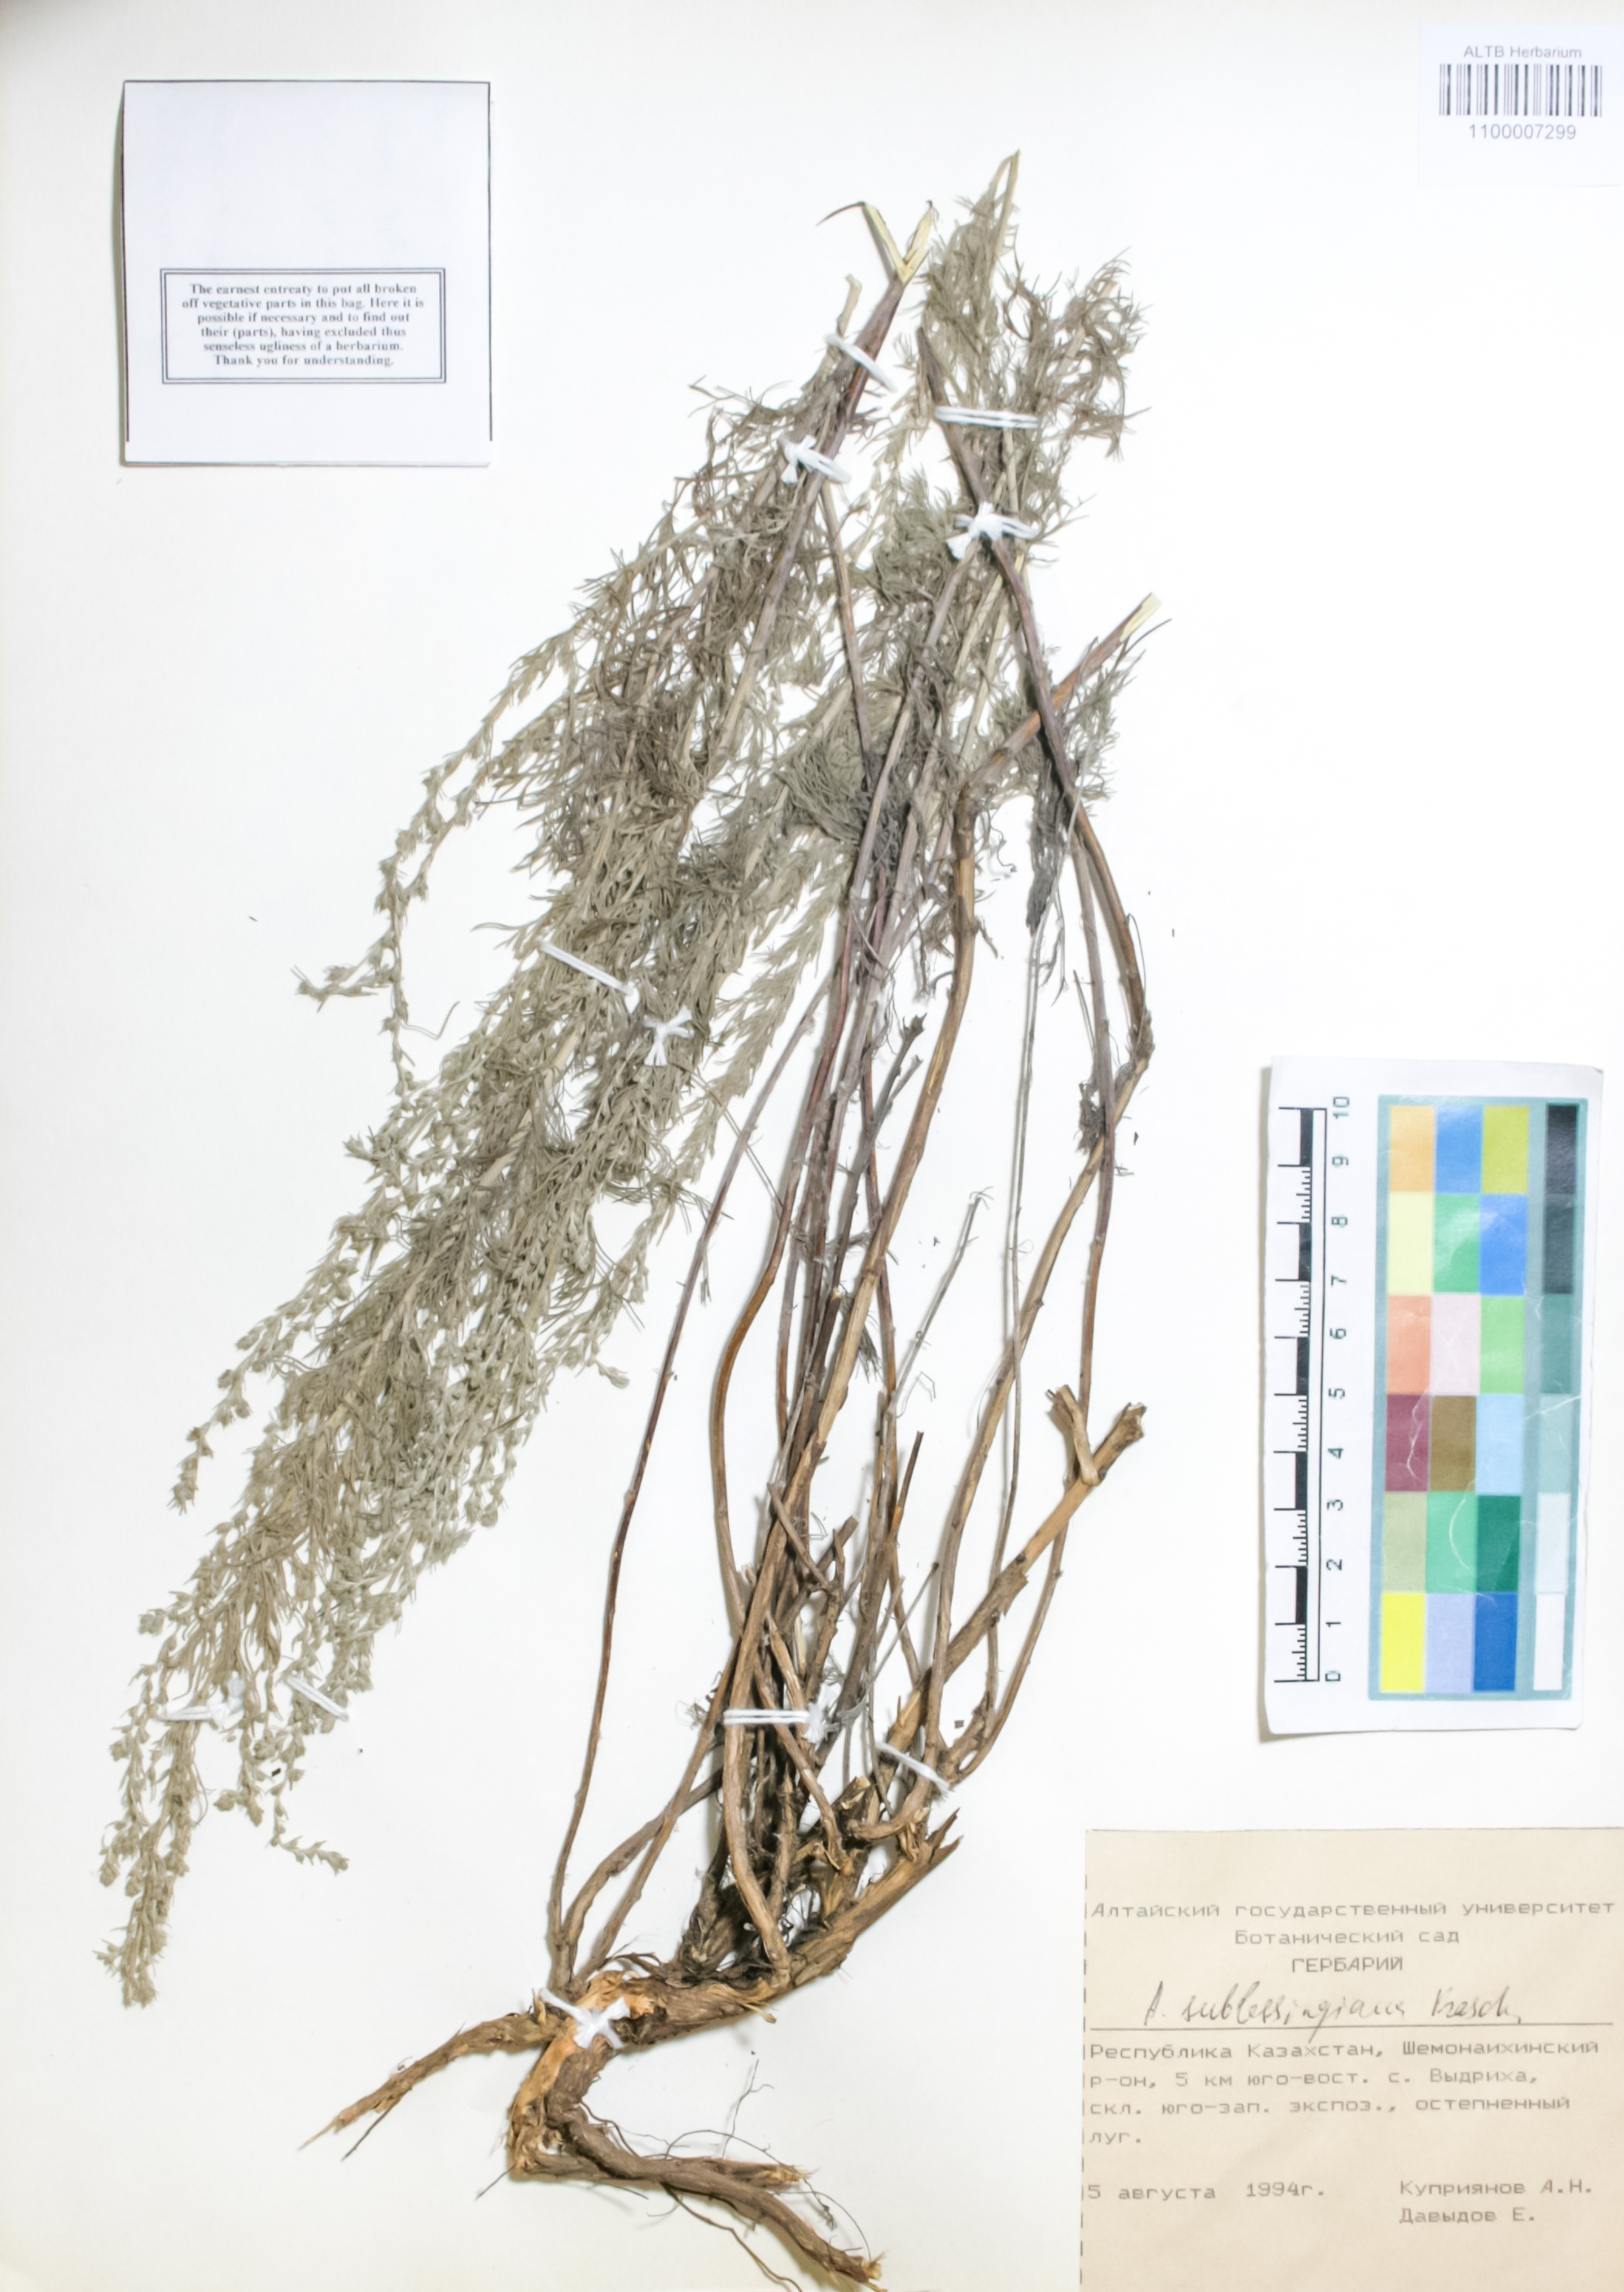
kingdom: Plantae
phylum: Tracheophyta
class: Magnoliopsida
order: Asterales
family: Asteraceae
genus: Artemisia
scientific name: Artemisia sublessingiana
